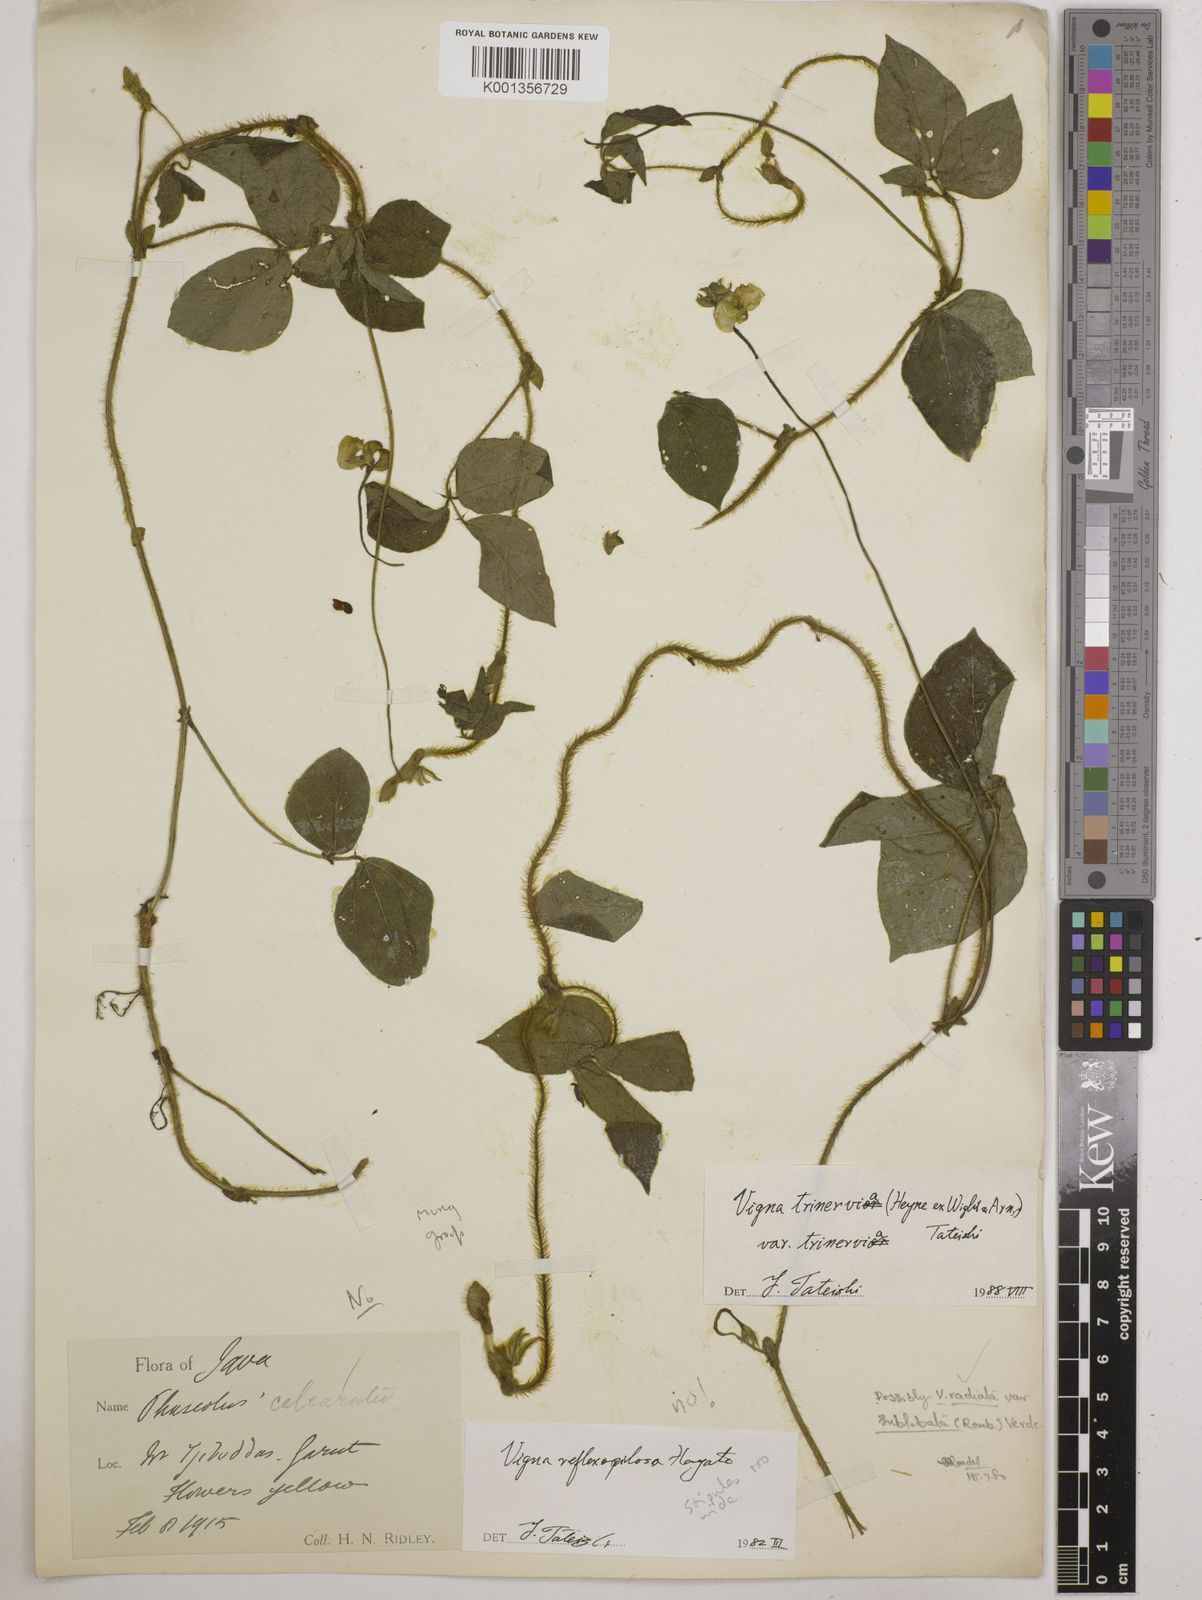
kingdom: Plantae
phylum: Tracheophyta
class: Magnoliopsida
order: Fabales
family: Fabaceae
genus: Vigna
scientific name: Vigna
